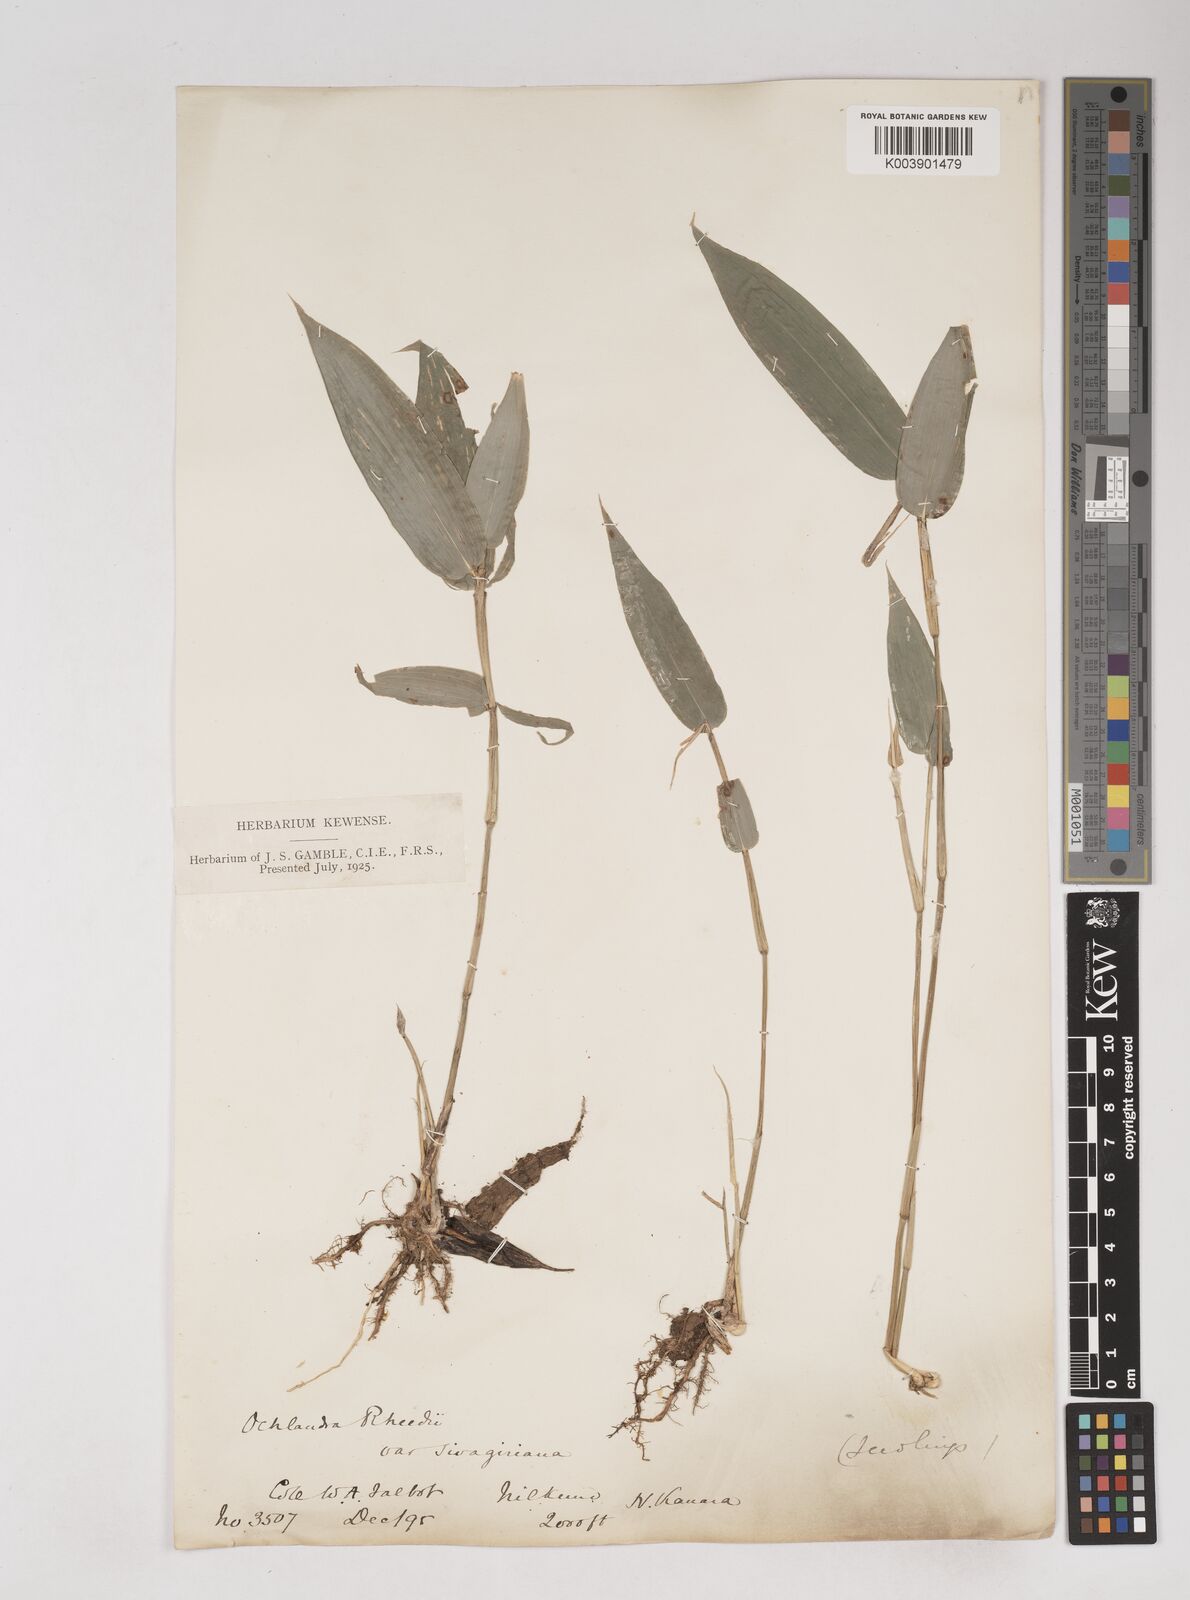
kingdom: Plantae
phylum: Tracheophyta
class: Liliopsida
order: Poales
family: Poaceae
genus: Ochlandra
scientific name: Ochlandra scriptoria
